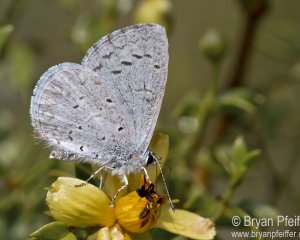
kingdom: Animalia
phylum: Arthropoda
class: Insecta
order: Lepidoptera
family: Lycaenidae
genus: Celastrina
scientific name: Celastrina ladon
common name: Spring Azure
